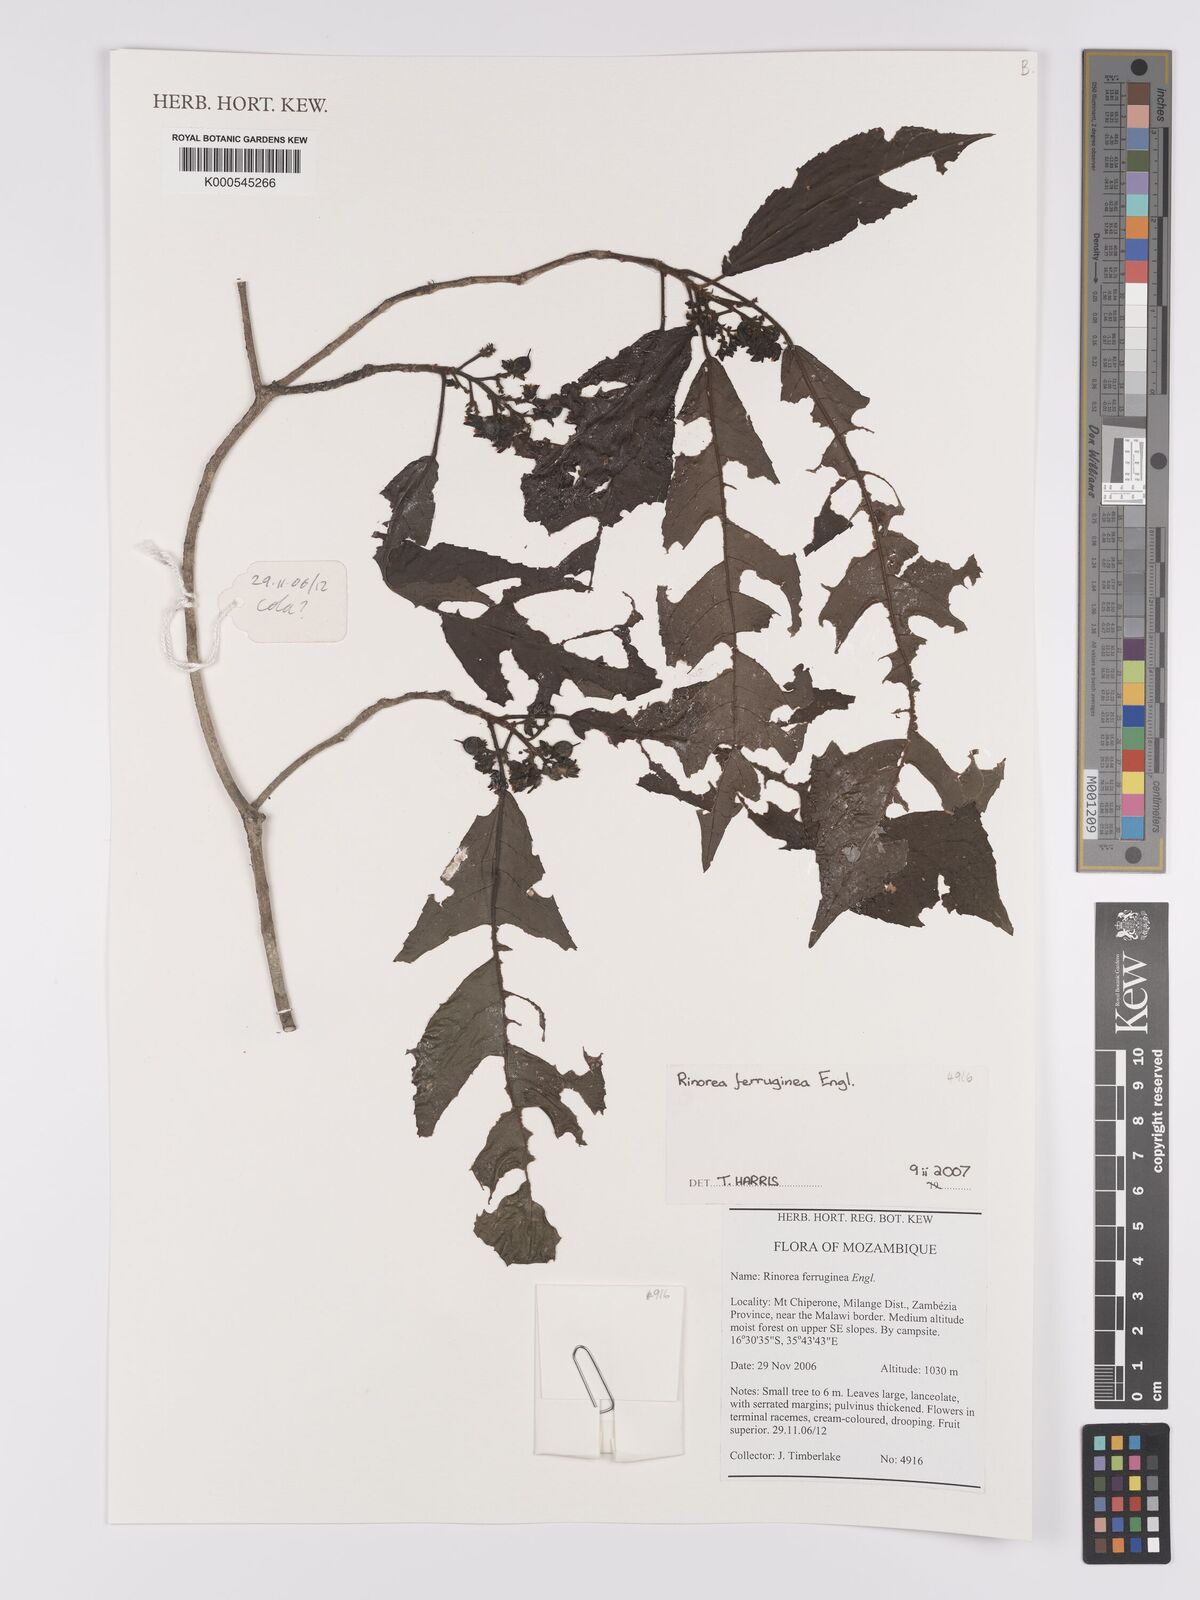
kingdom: Plantae
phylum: Tracheophyta
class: Magnoliopsida
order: Malpighiales
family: Violaceae
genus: Rinorea
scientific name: Rinorea ferruginea
